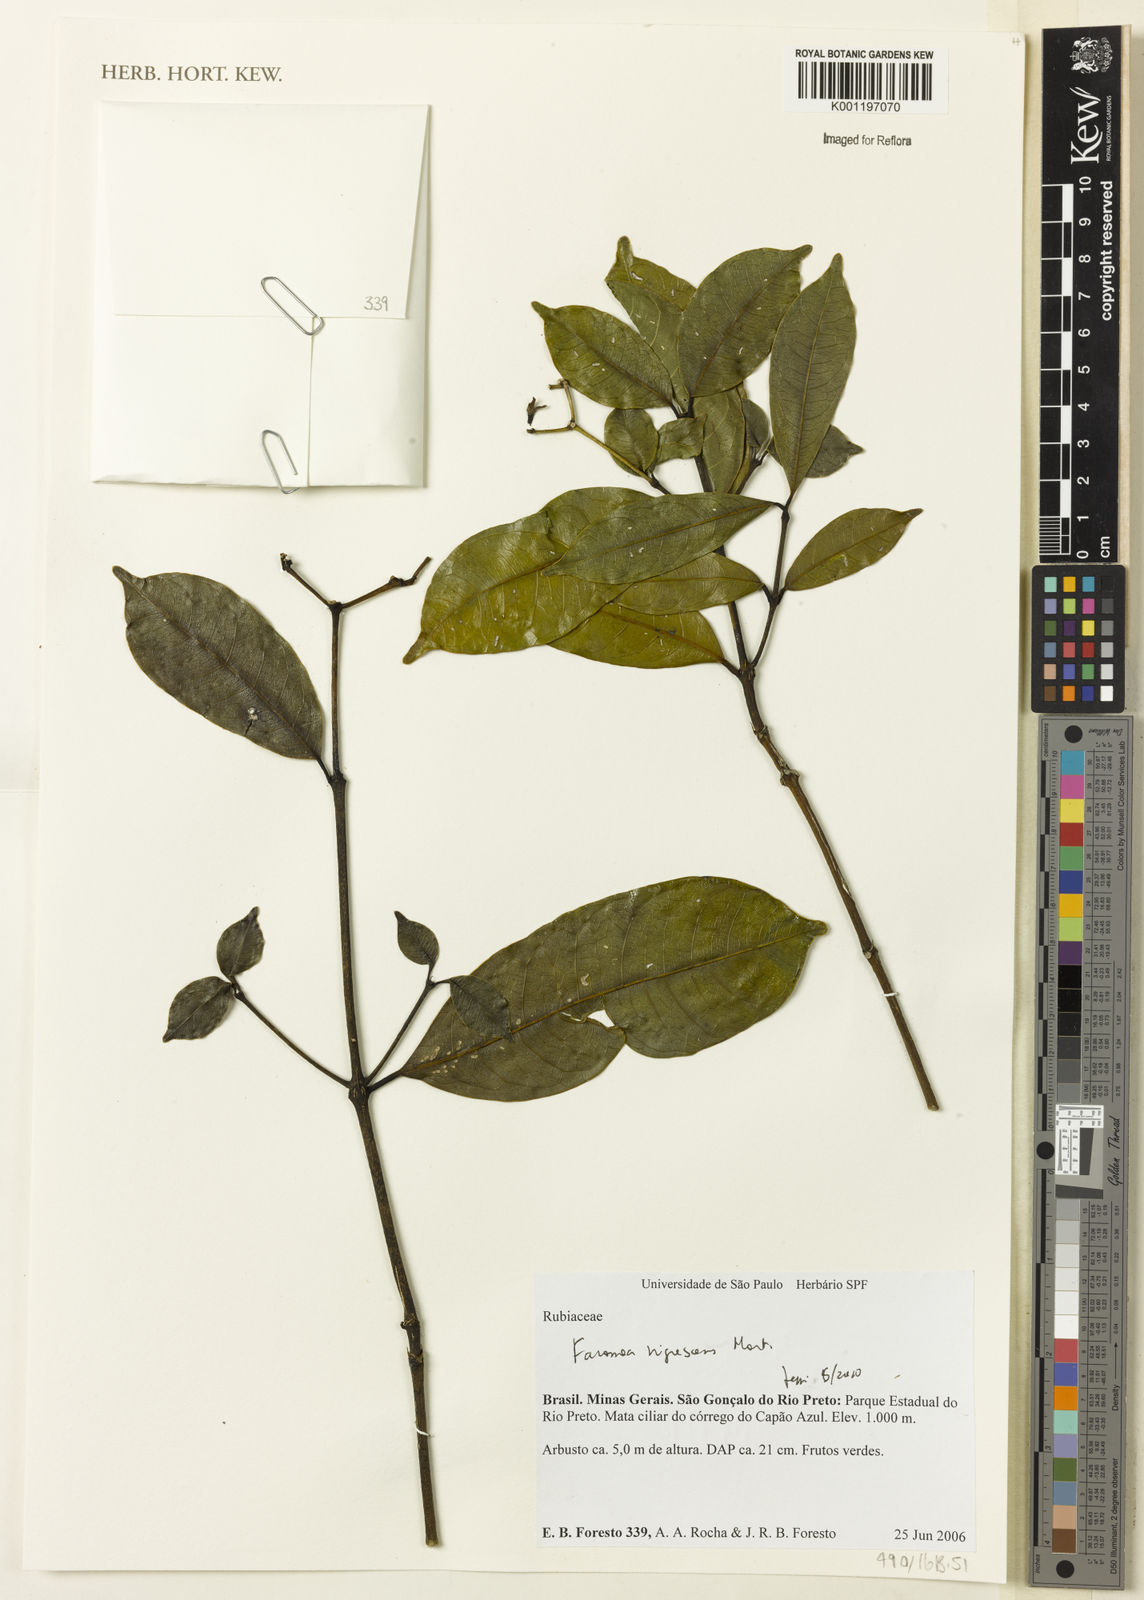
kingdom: Plantae
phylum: Tracheophyta
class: Magnoliopsida
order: Gentianales
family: Rubiaceae
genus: Faramea
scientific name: Faramea nigrescens
